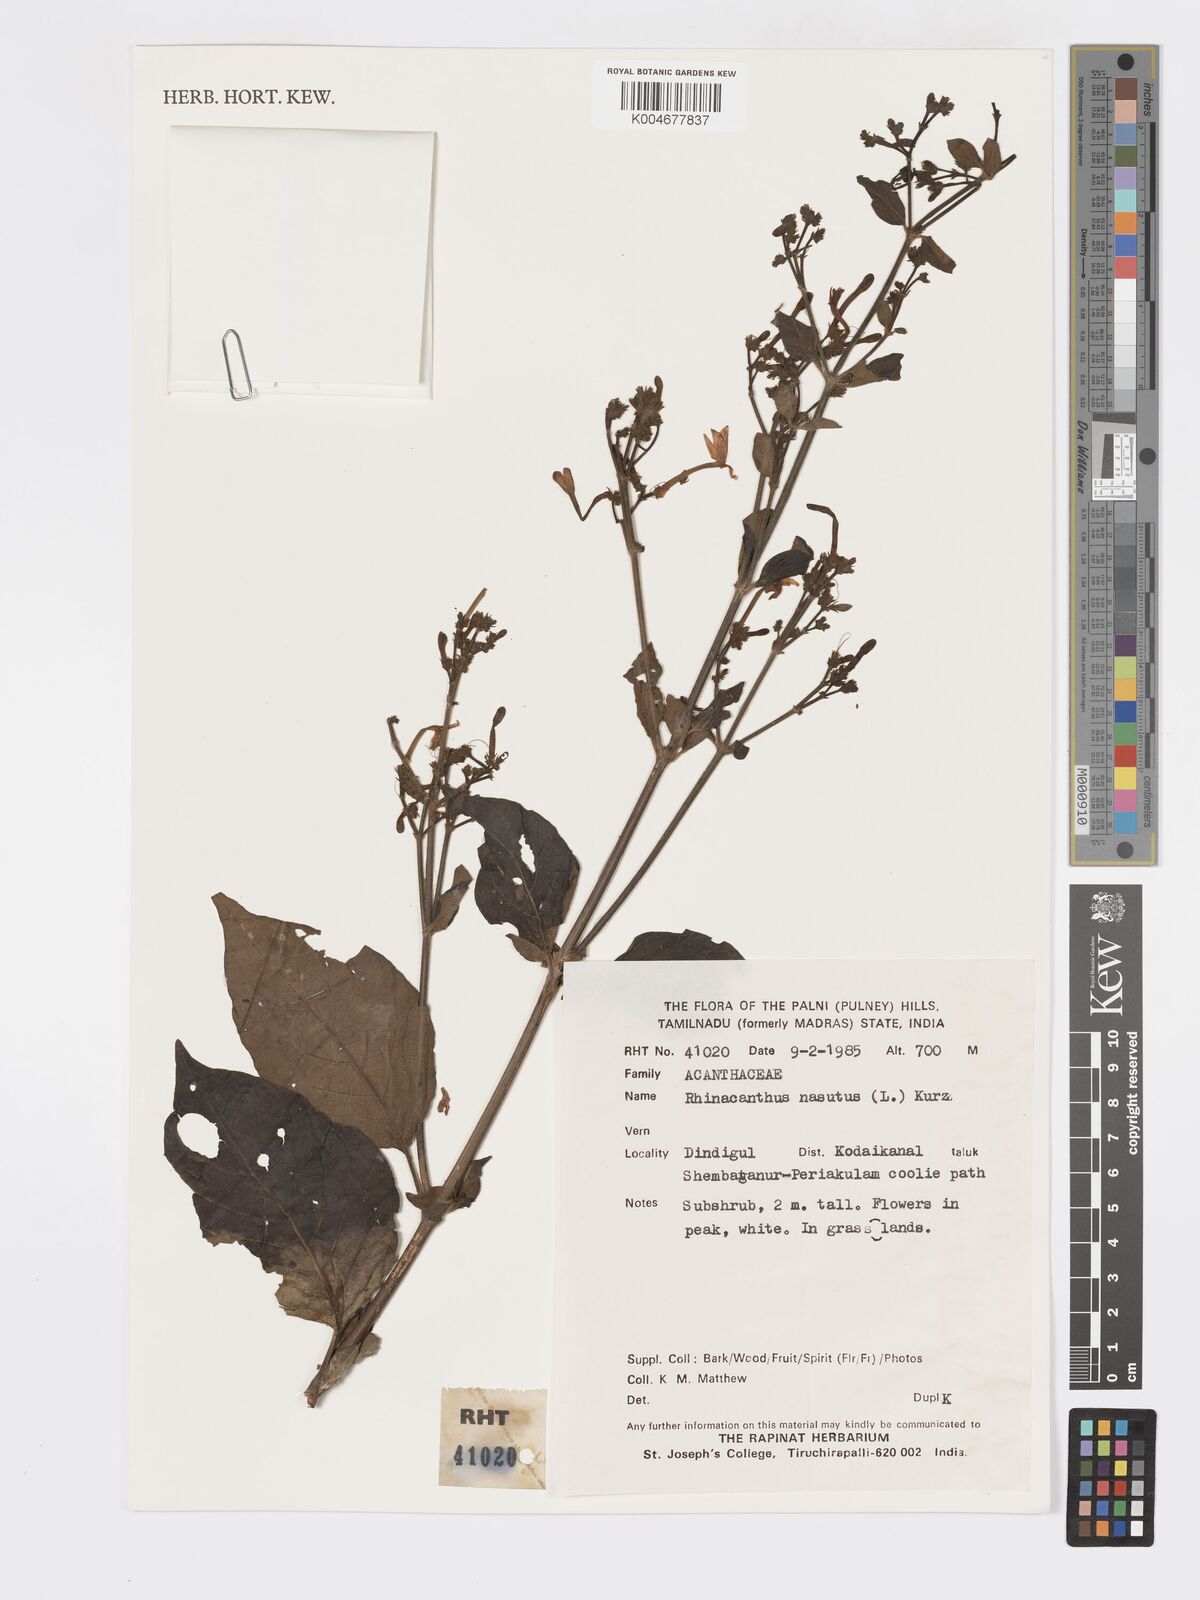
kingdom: Plantae
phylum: Tracheophyta
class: Magnoliopsida
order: Lamiales
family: Acanthaceae
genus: Rhinacanthus
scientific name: Rhinacanthus nasutus
